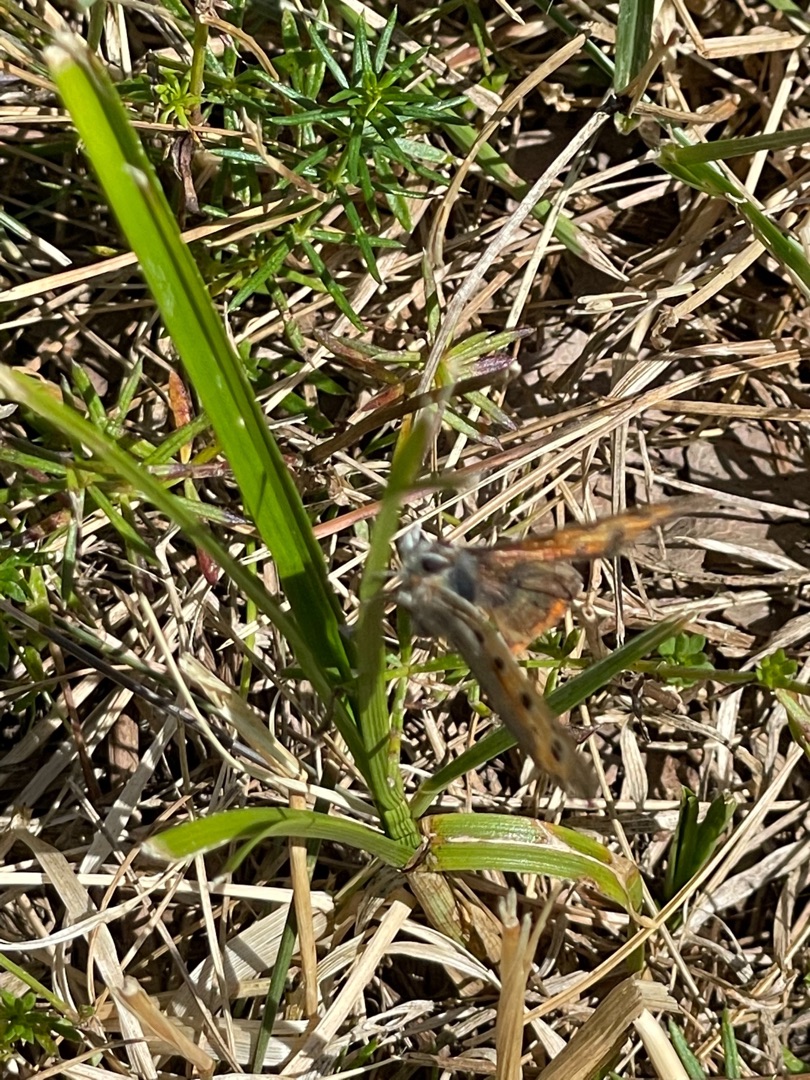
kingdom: Animalia
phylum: Arthropoda
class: Insecta
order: Lepidoptera
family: Lycaenidae
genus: Lycaena
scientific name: Lycaena phlaeas
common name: Lille ildfugl
